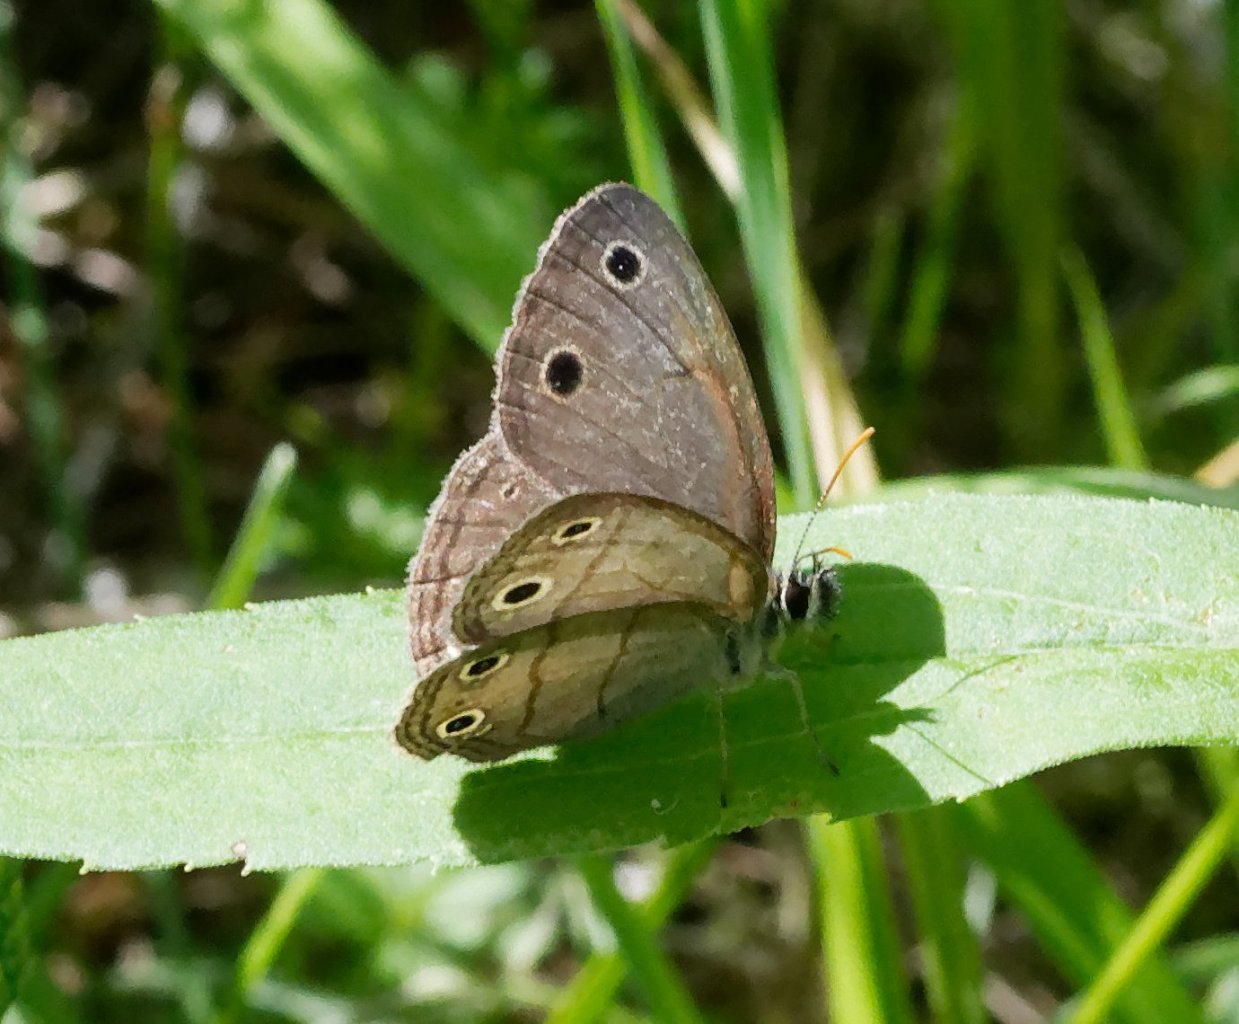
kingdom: Animalia
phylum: Arthropoda
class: Insecta
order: Lepidoptera
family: Nymphalidae
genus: Euptychia
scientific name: Euptychia cymela
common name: Little Wood Satyr
